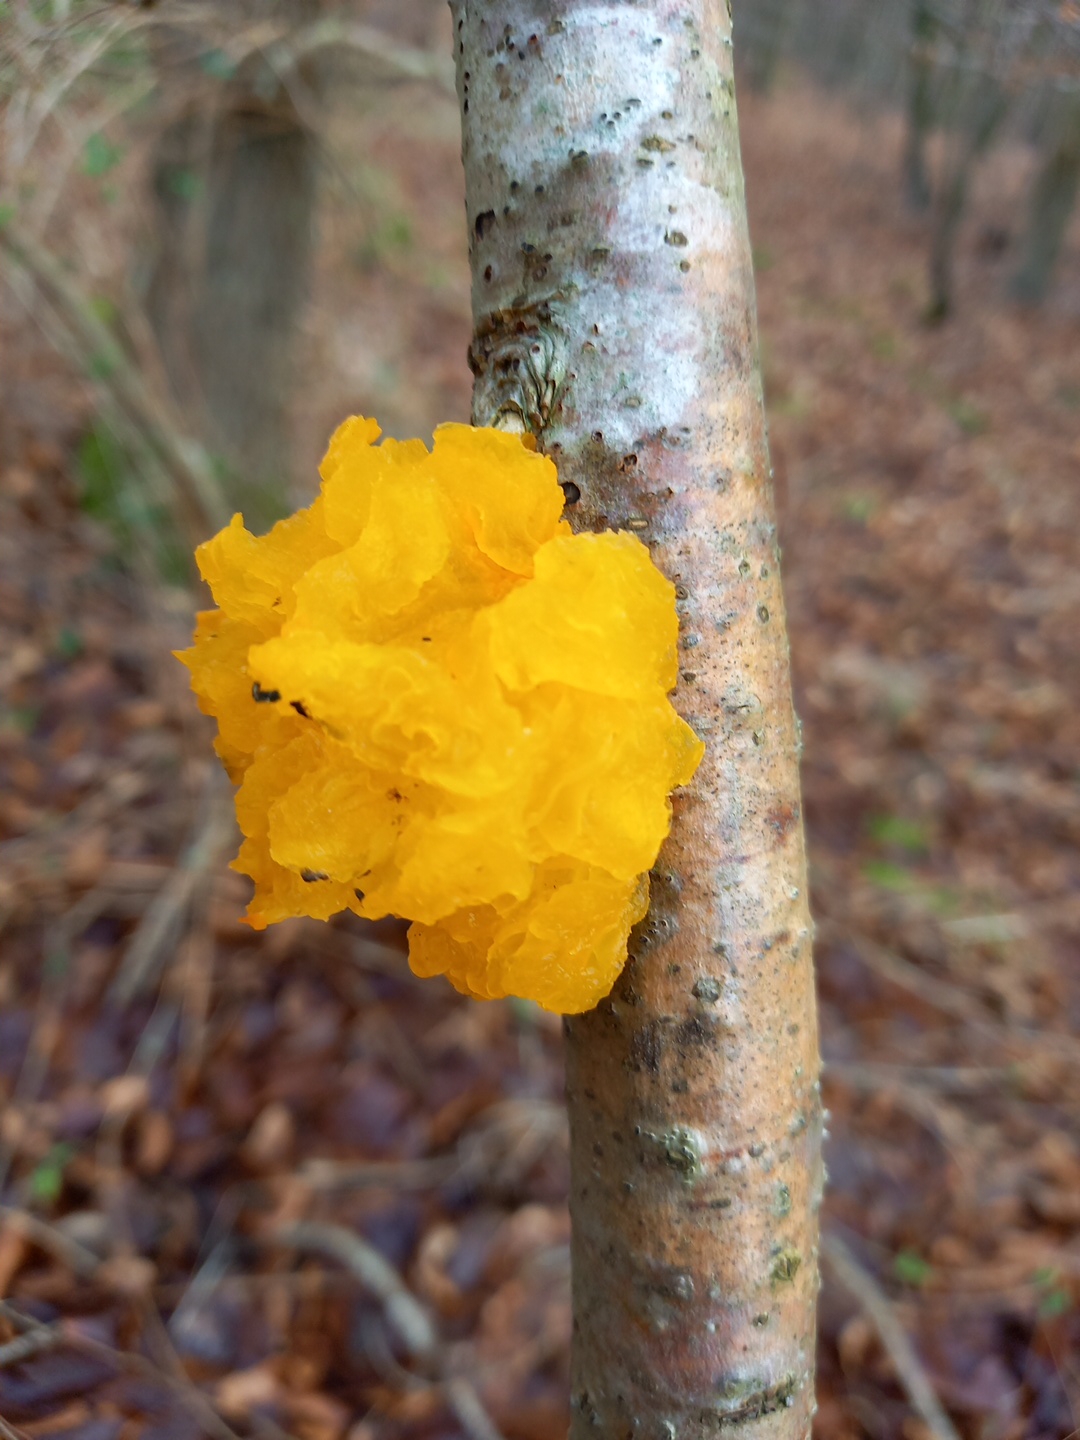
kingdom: Fungi
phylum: Basidiomycota
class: Tremellomycetes
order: Tremellales
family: Tremellaceae
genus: Tremella
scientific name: Tremella mesenterica
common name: gul bævresvamp
